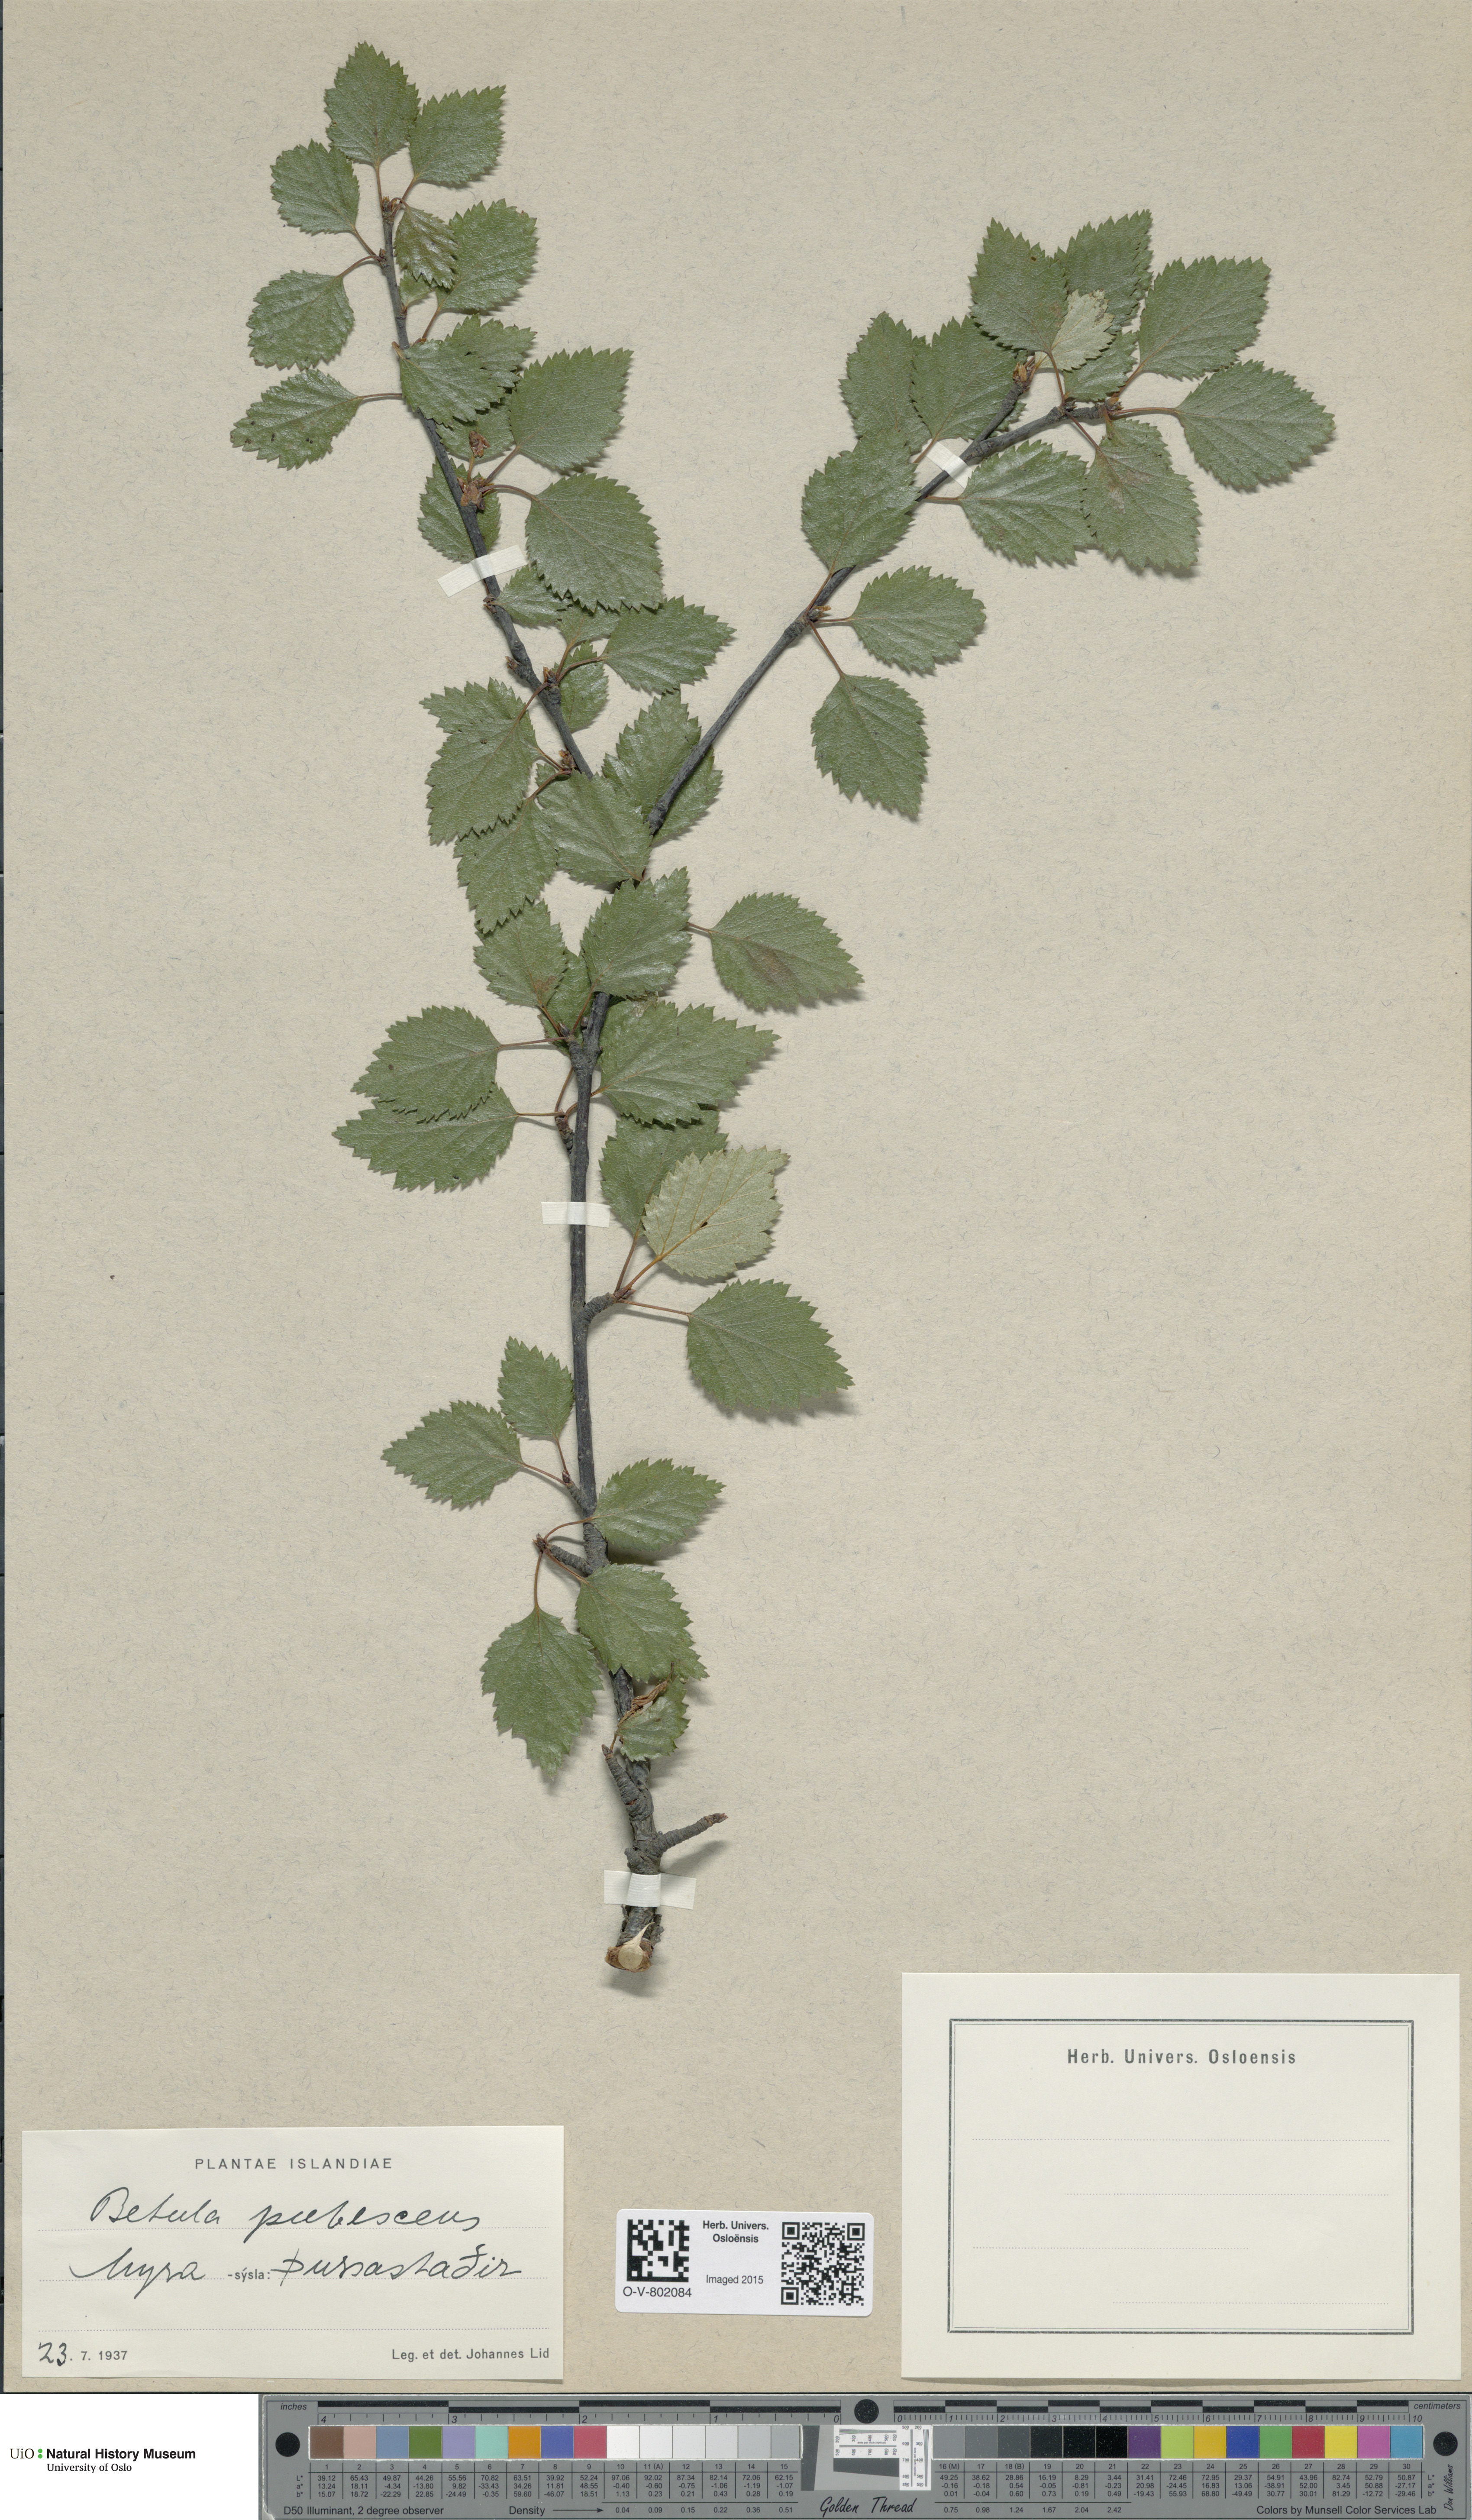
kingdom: Plantae
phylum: Tracheophyta
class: Magnoliopsida
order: Fagales
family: Betulaceae
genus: Betula
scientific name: Betula pubescens
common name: Downy birch
